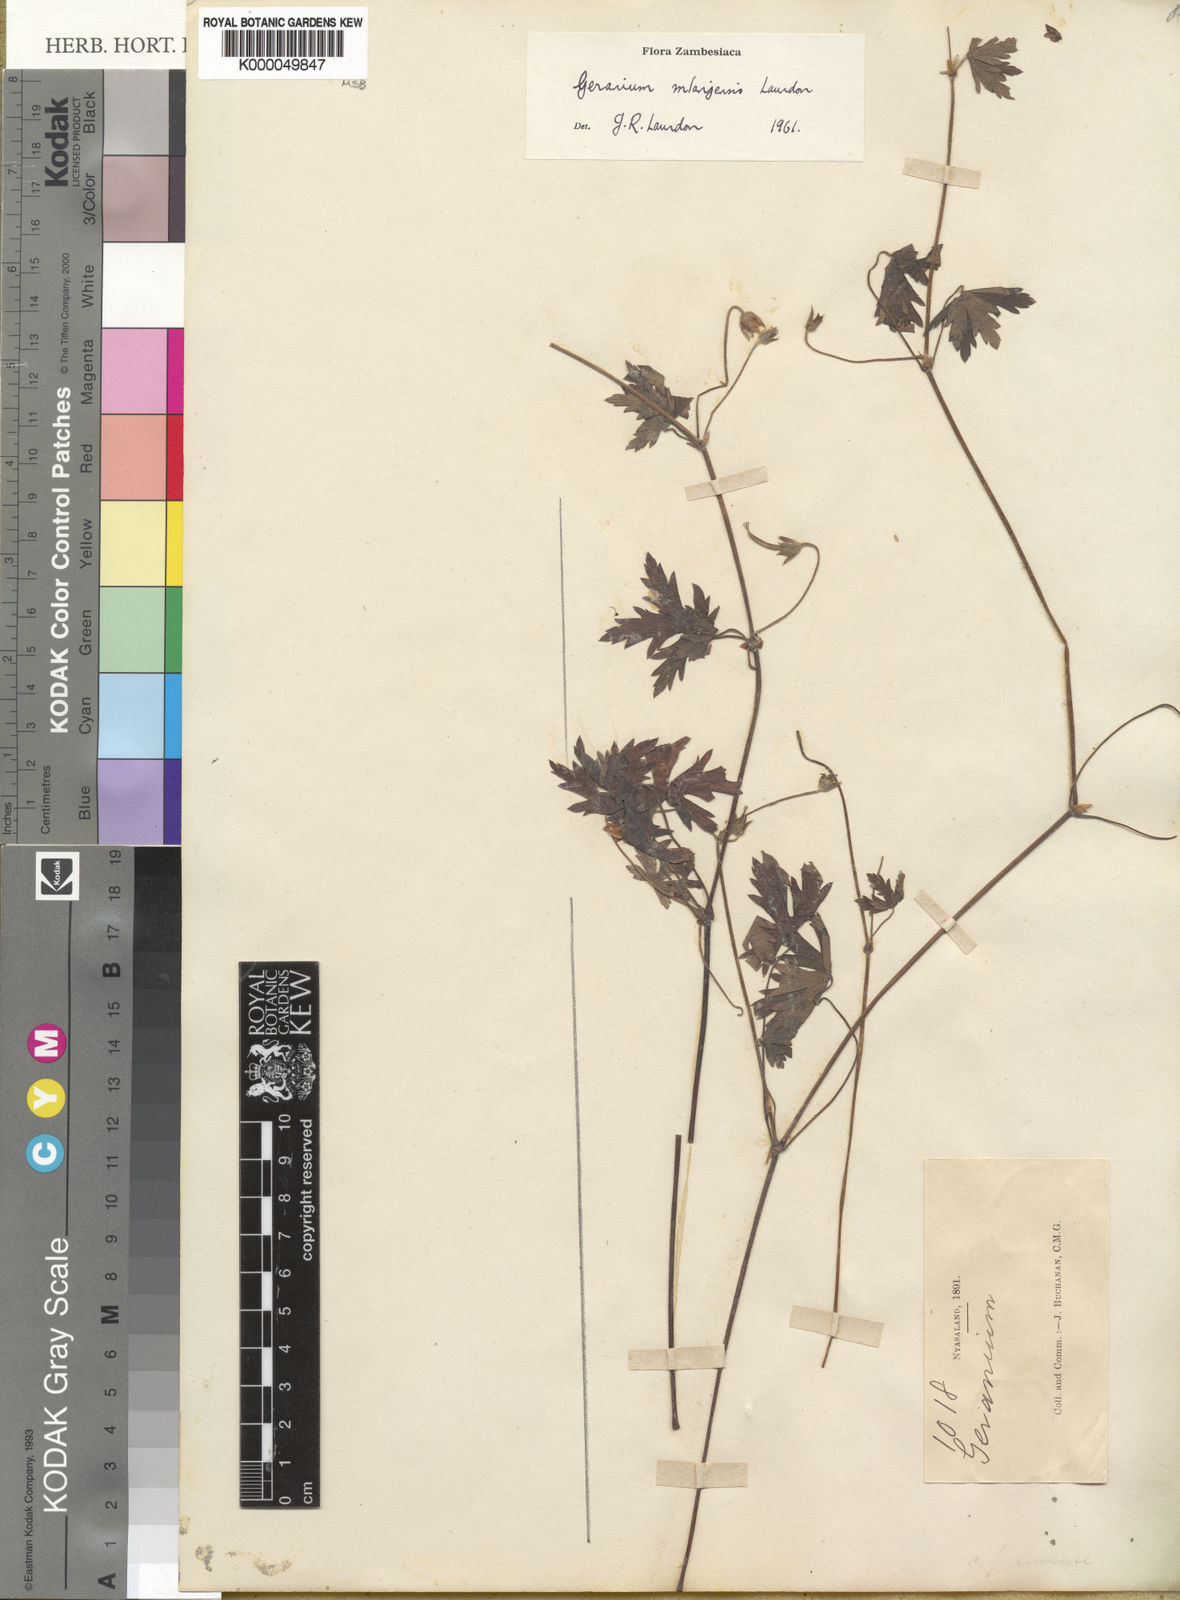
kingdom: Plantae
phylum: Tracheophyta
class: Magnoliopsida
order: Geraniales
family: Geraniaceae
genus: Geranium
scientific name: Geranium mlanjense
